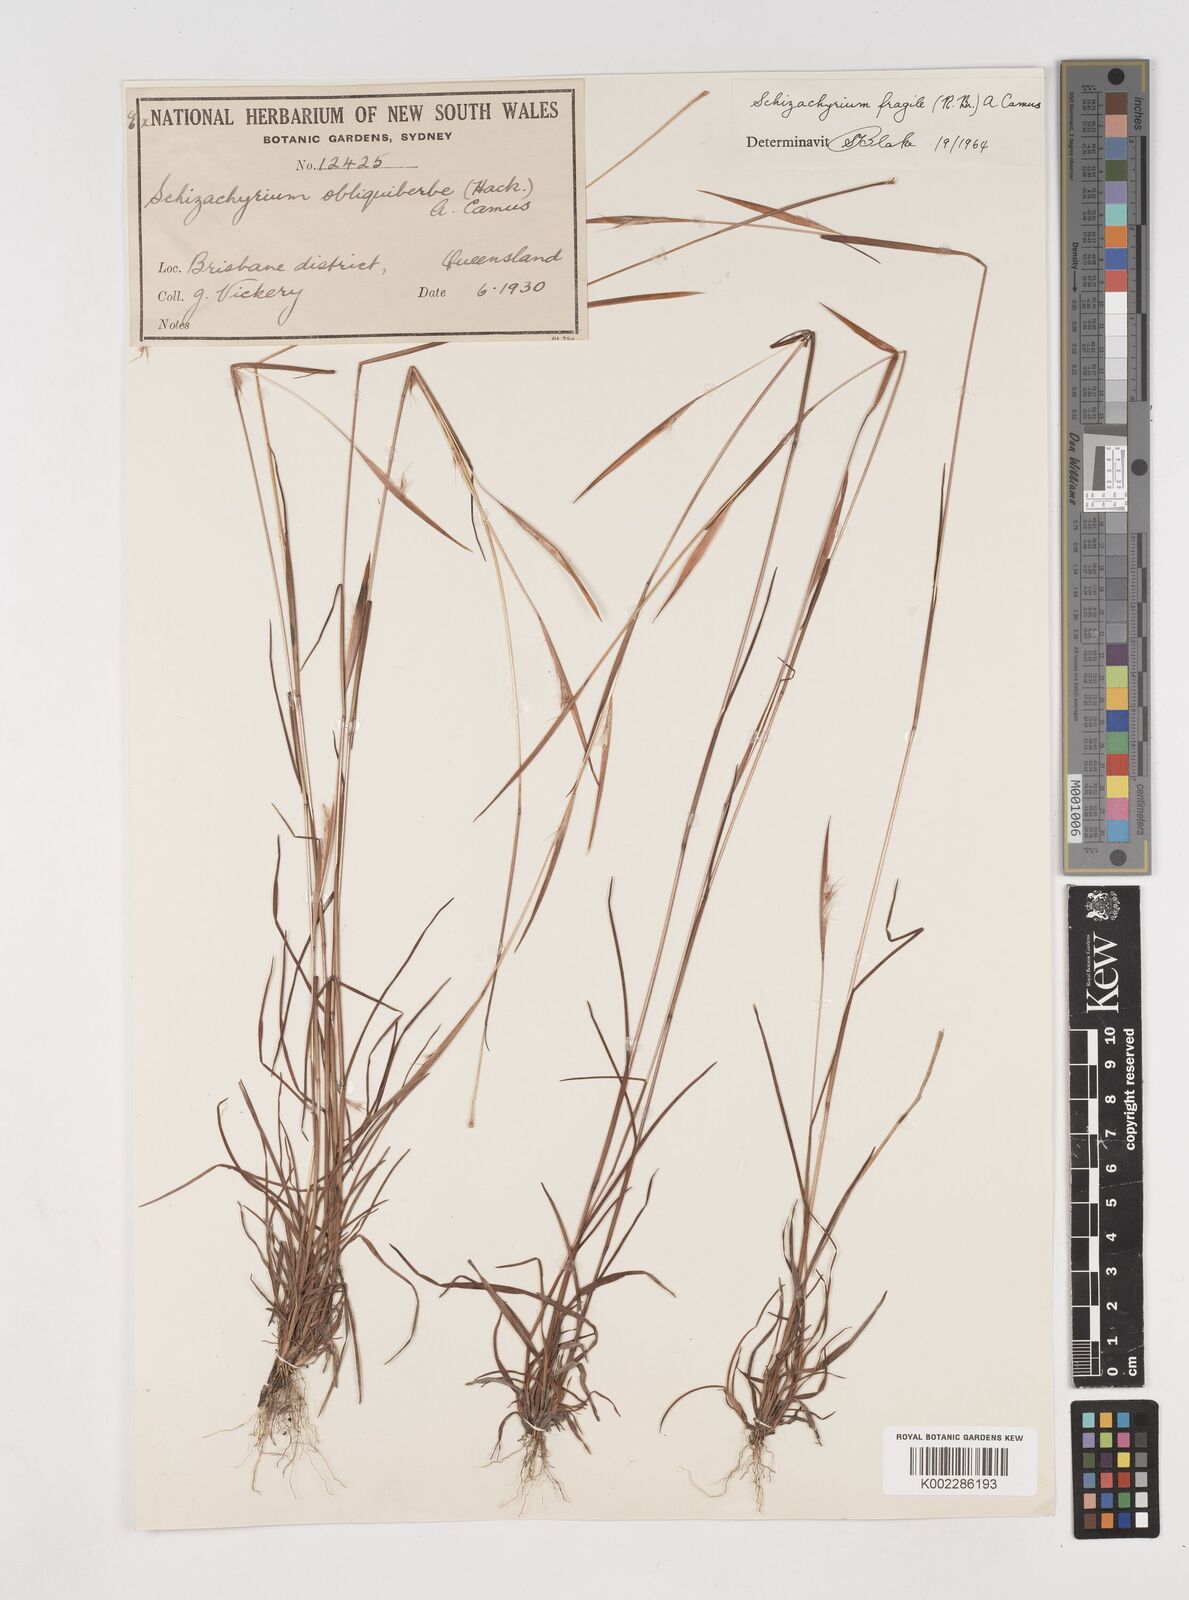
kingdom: Plantae
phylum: Tracheophyta
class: Liliopsida
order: Poales
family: Poaceae
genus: Schizachyrium
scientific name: Schizachyrium fragile
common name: Red spathe grass
